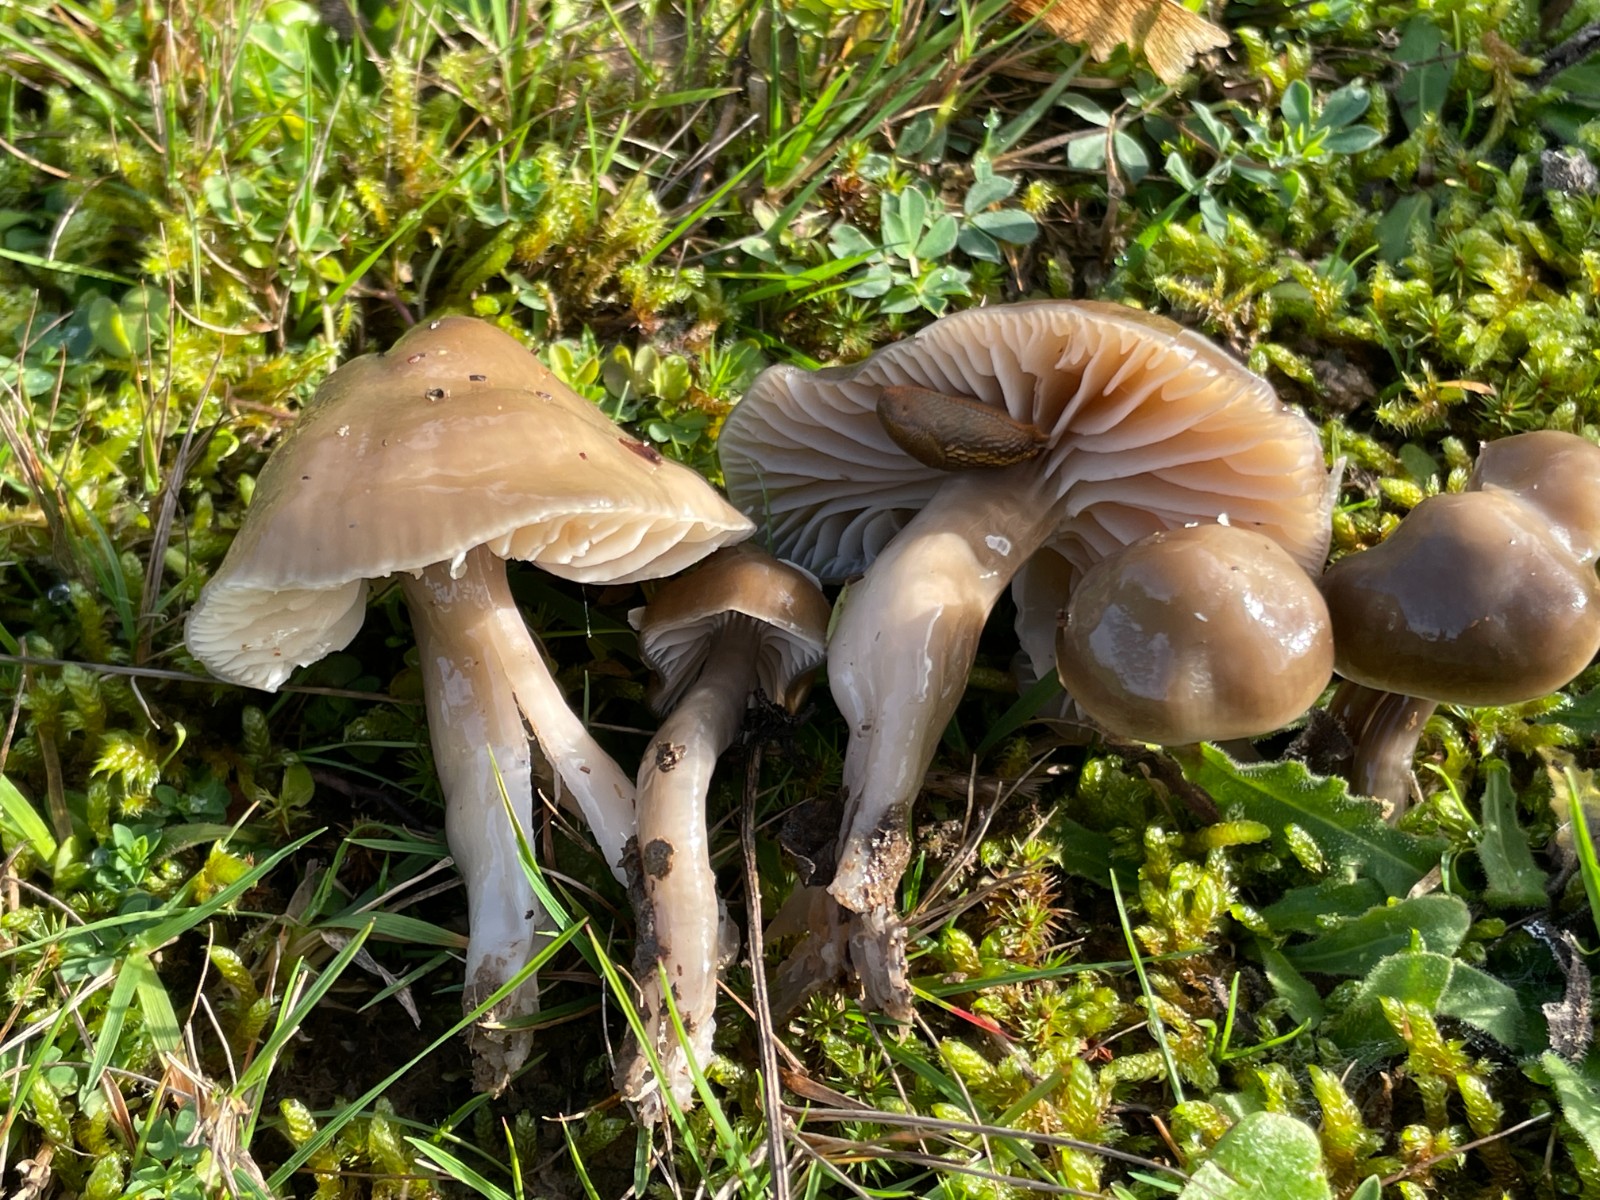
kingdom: Fungi
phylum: Basidiomycota
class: Agaricomycetes
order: Agaricales
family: Hygrophoraceae
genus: Gliophorus
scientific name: Gliophorus irrigatus
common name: slimet vokshat
